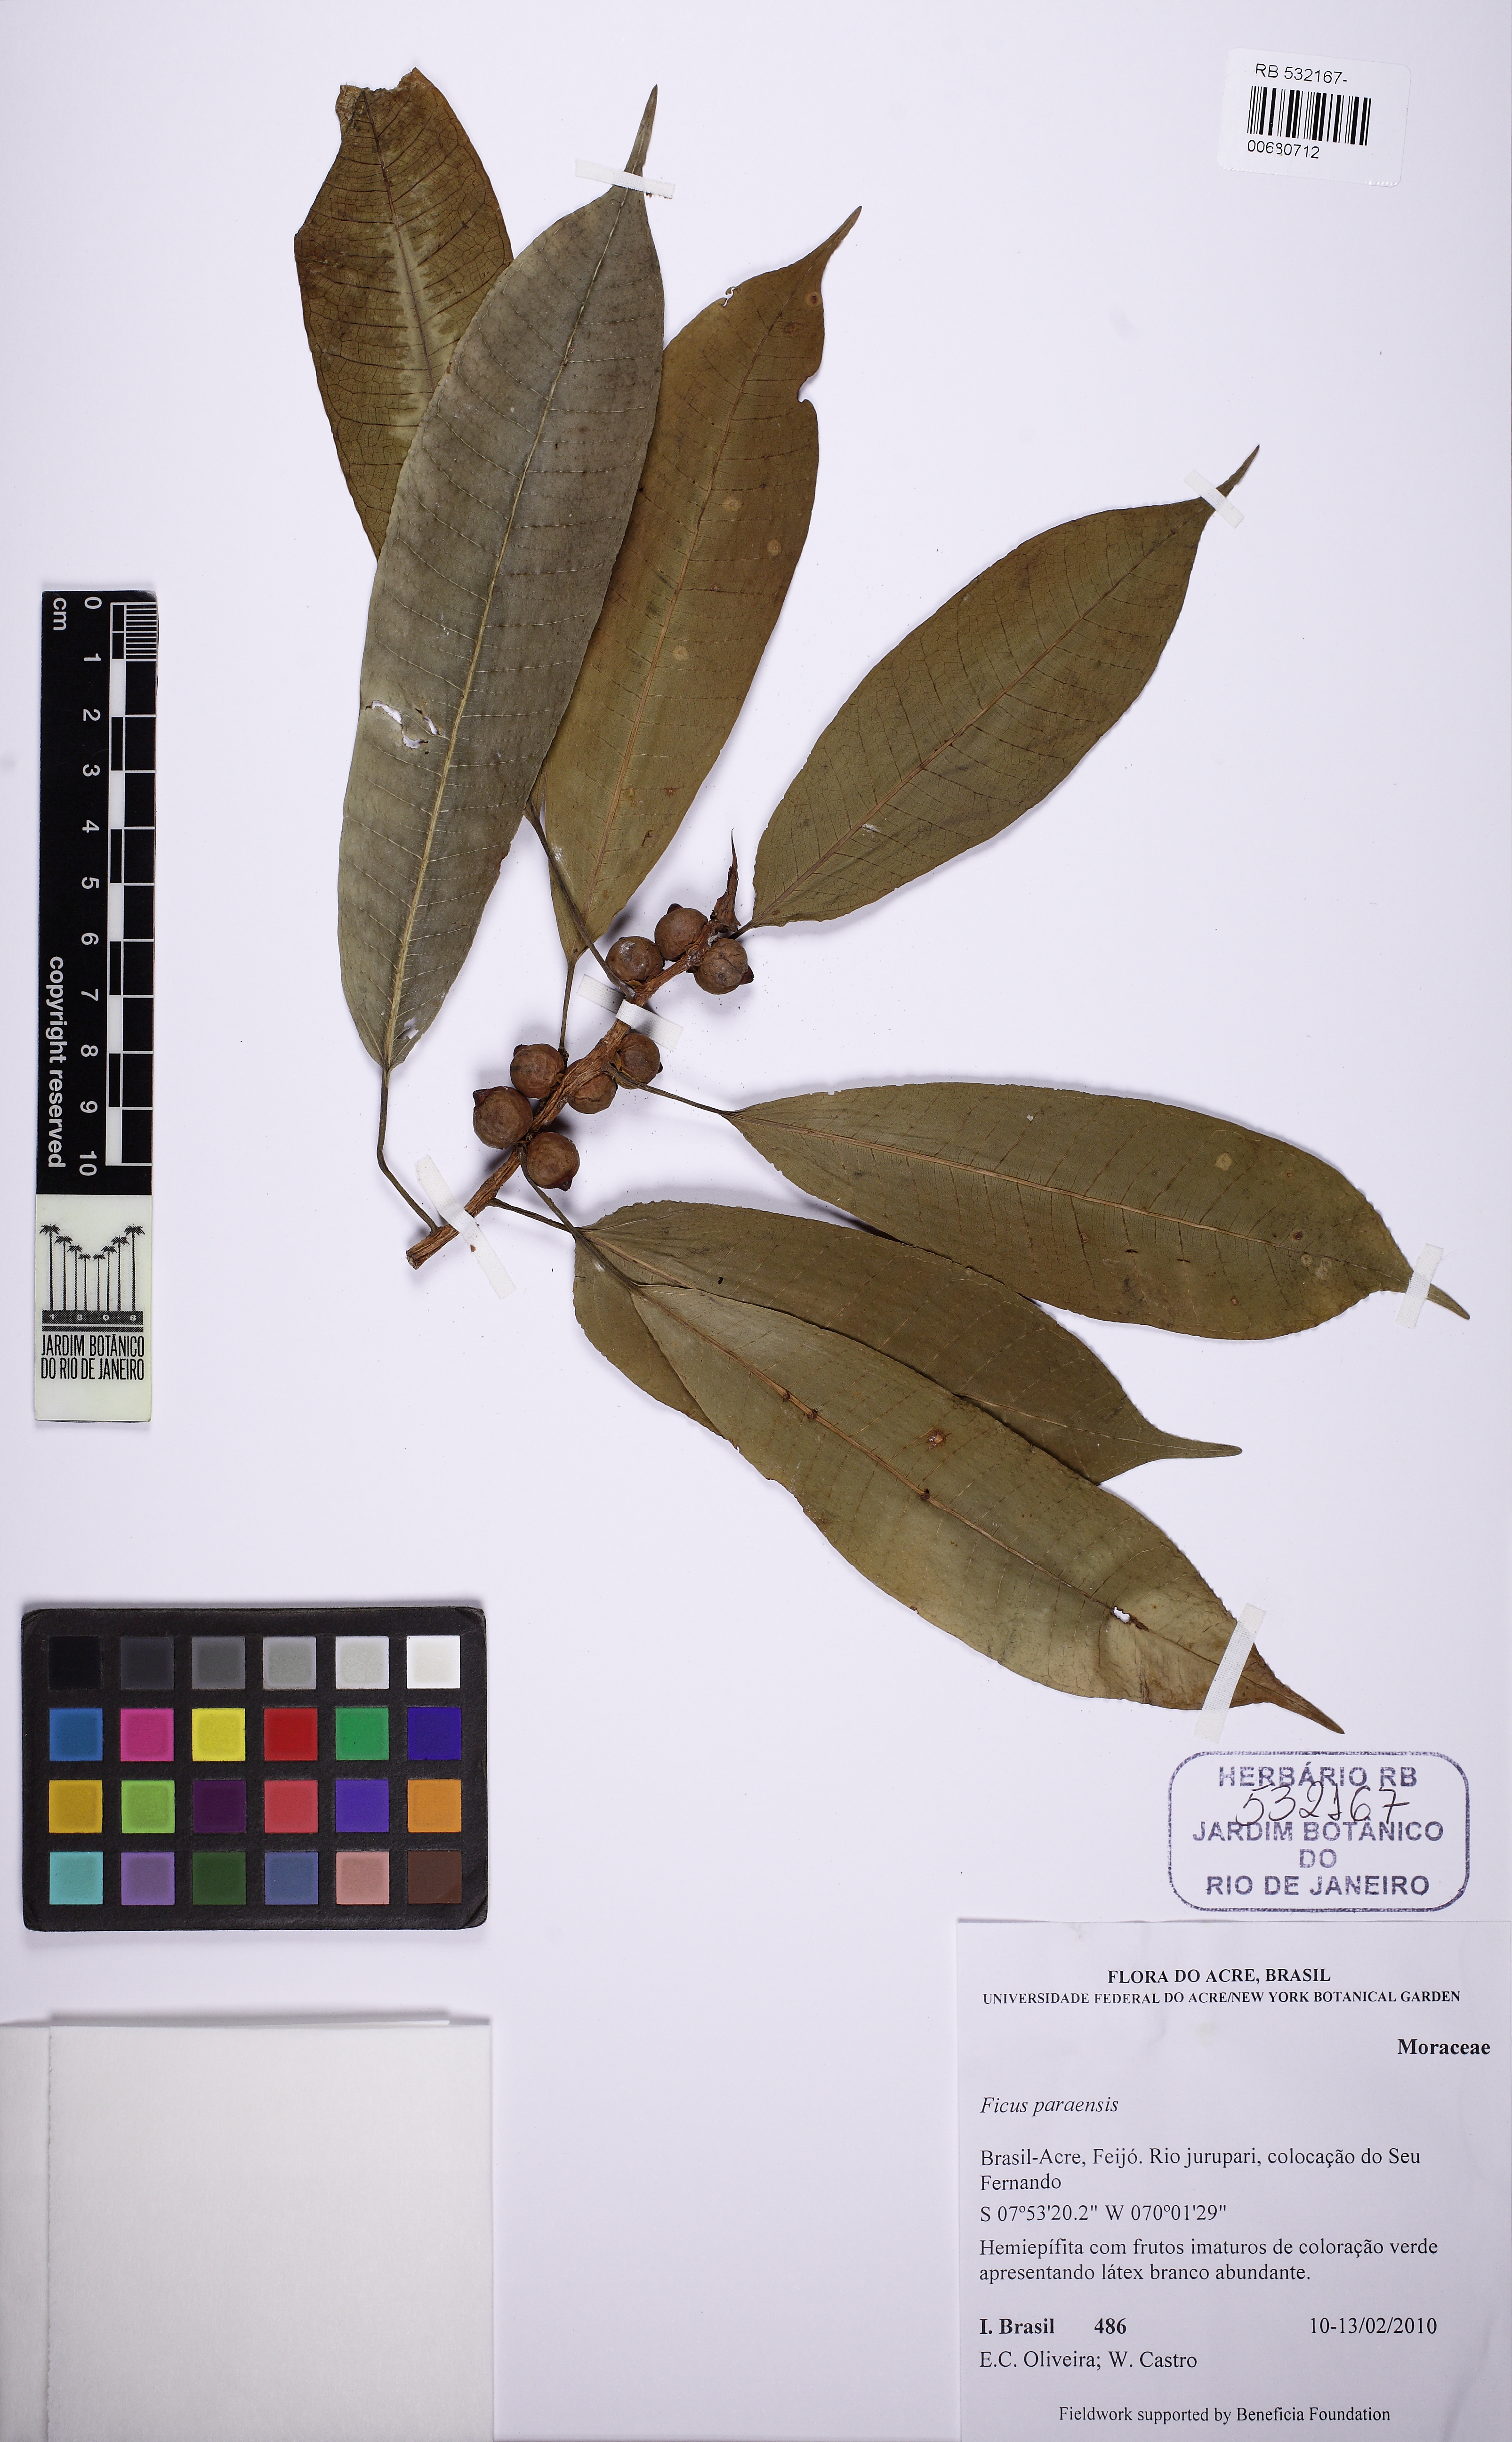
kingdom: Plantae
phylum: Tracheophyta
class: Magnoliopsida
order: Rosales
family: Moraceae
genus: Ficus
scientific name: Ficus paraensis
